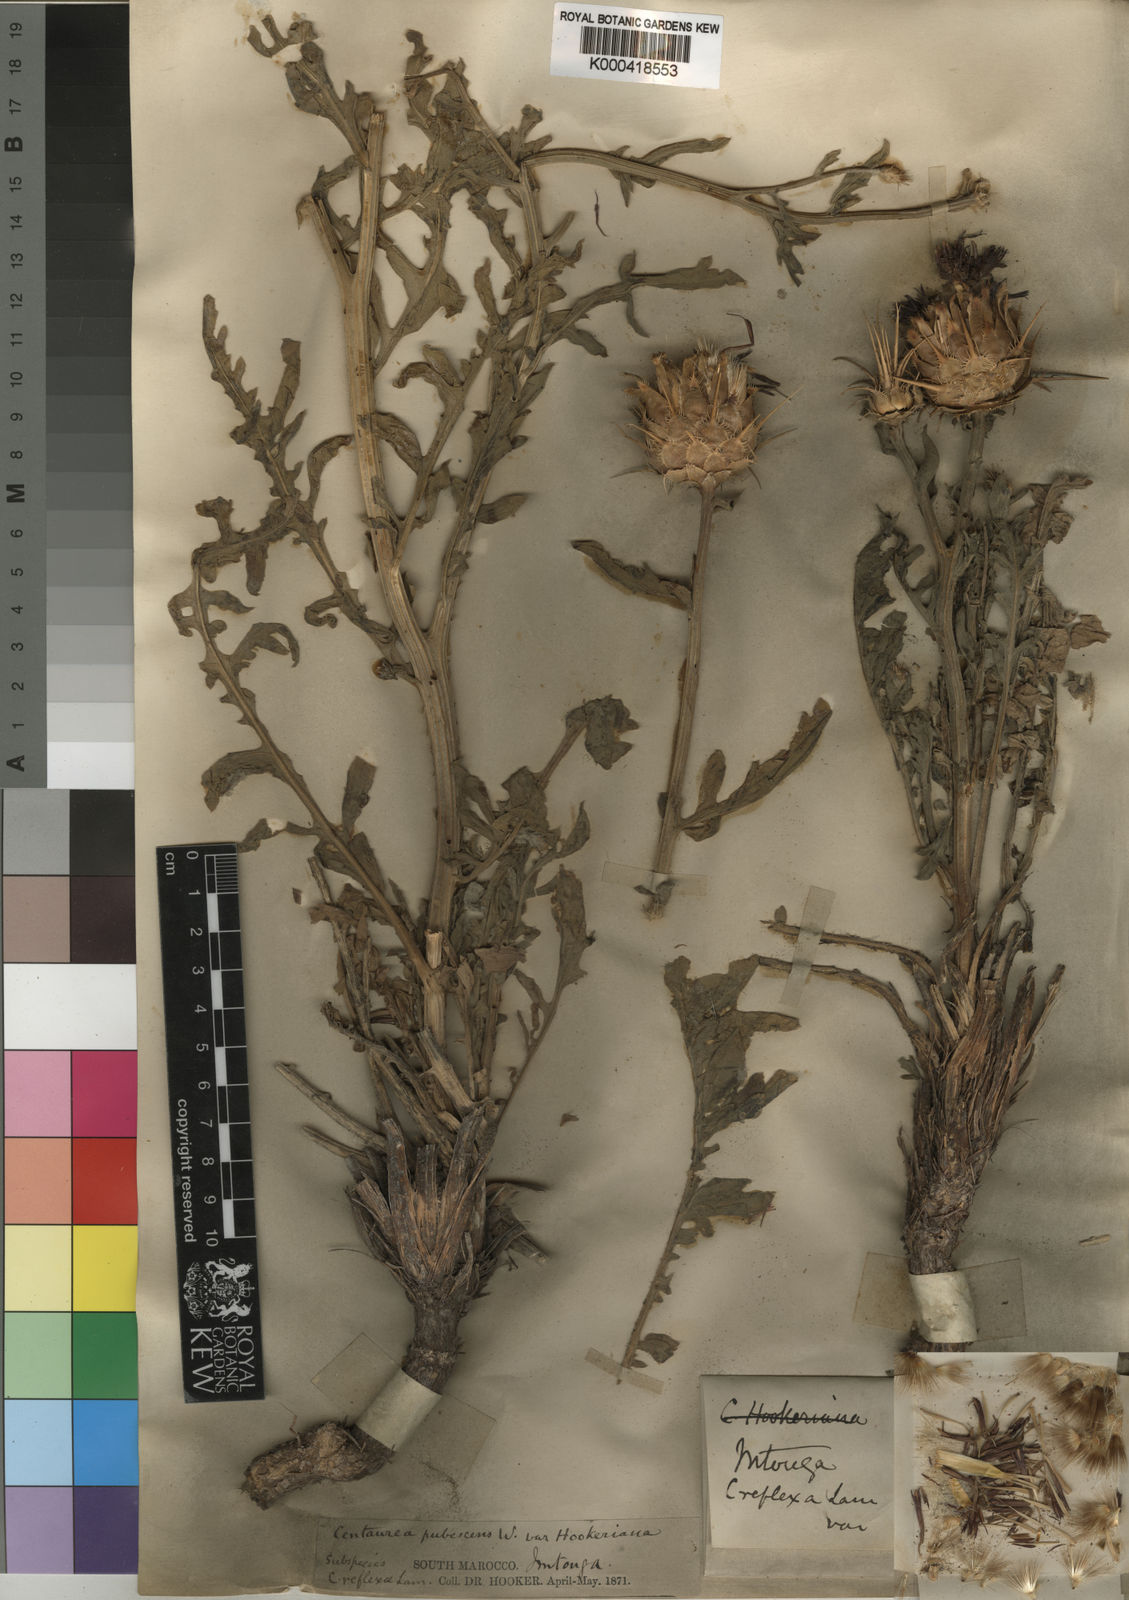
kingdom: Plantae
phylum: Tracheophyta
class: Magnoliopsida
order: Asterales
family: Asteraceae
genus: Centaurea
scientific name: Centaurea
